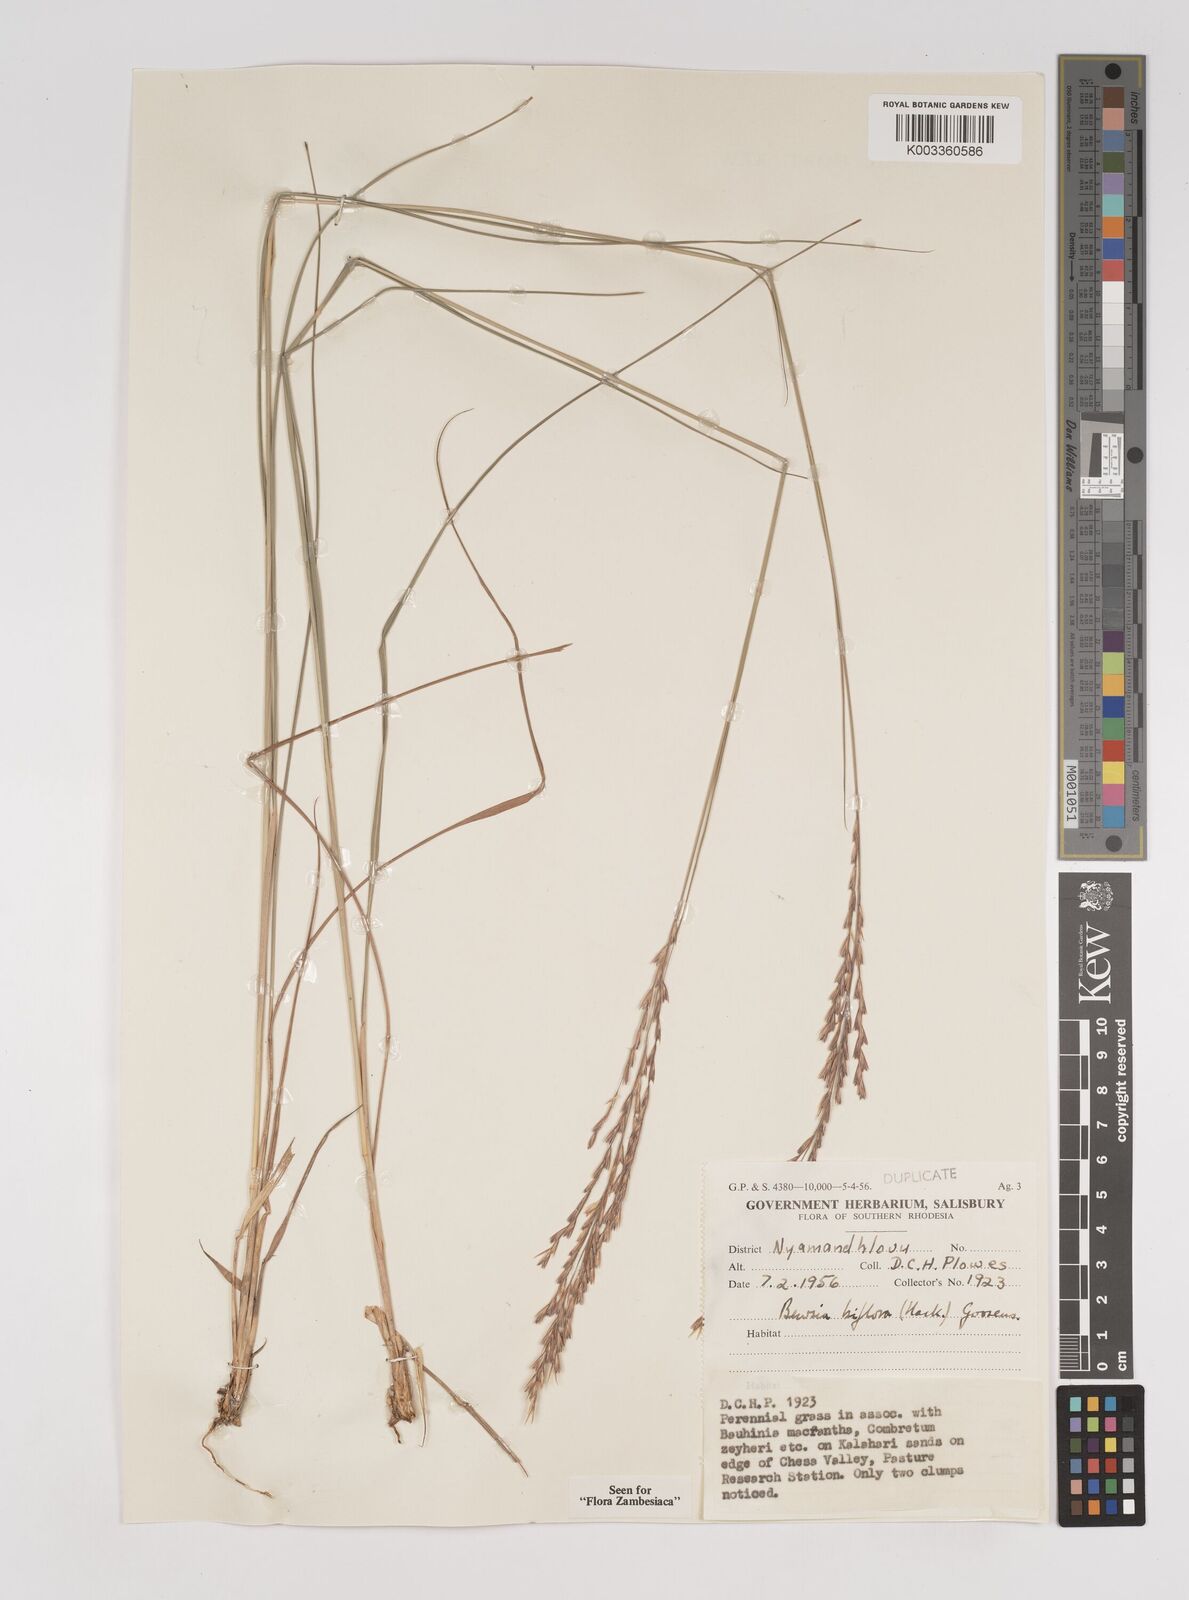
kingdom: Plantae
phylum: Tracheophyta
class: Liliopsida
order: Poales
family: Poaceae
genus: Bewsia
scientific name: Bewsia biflora
